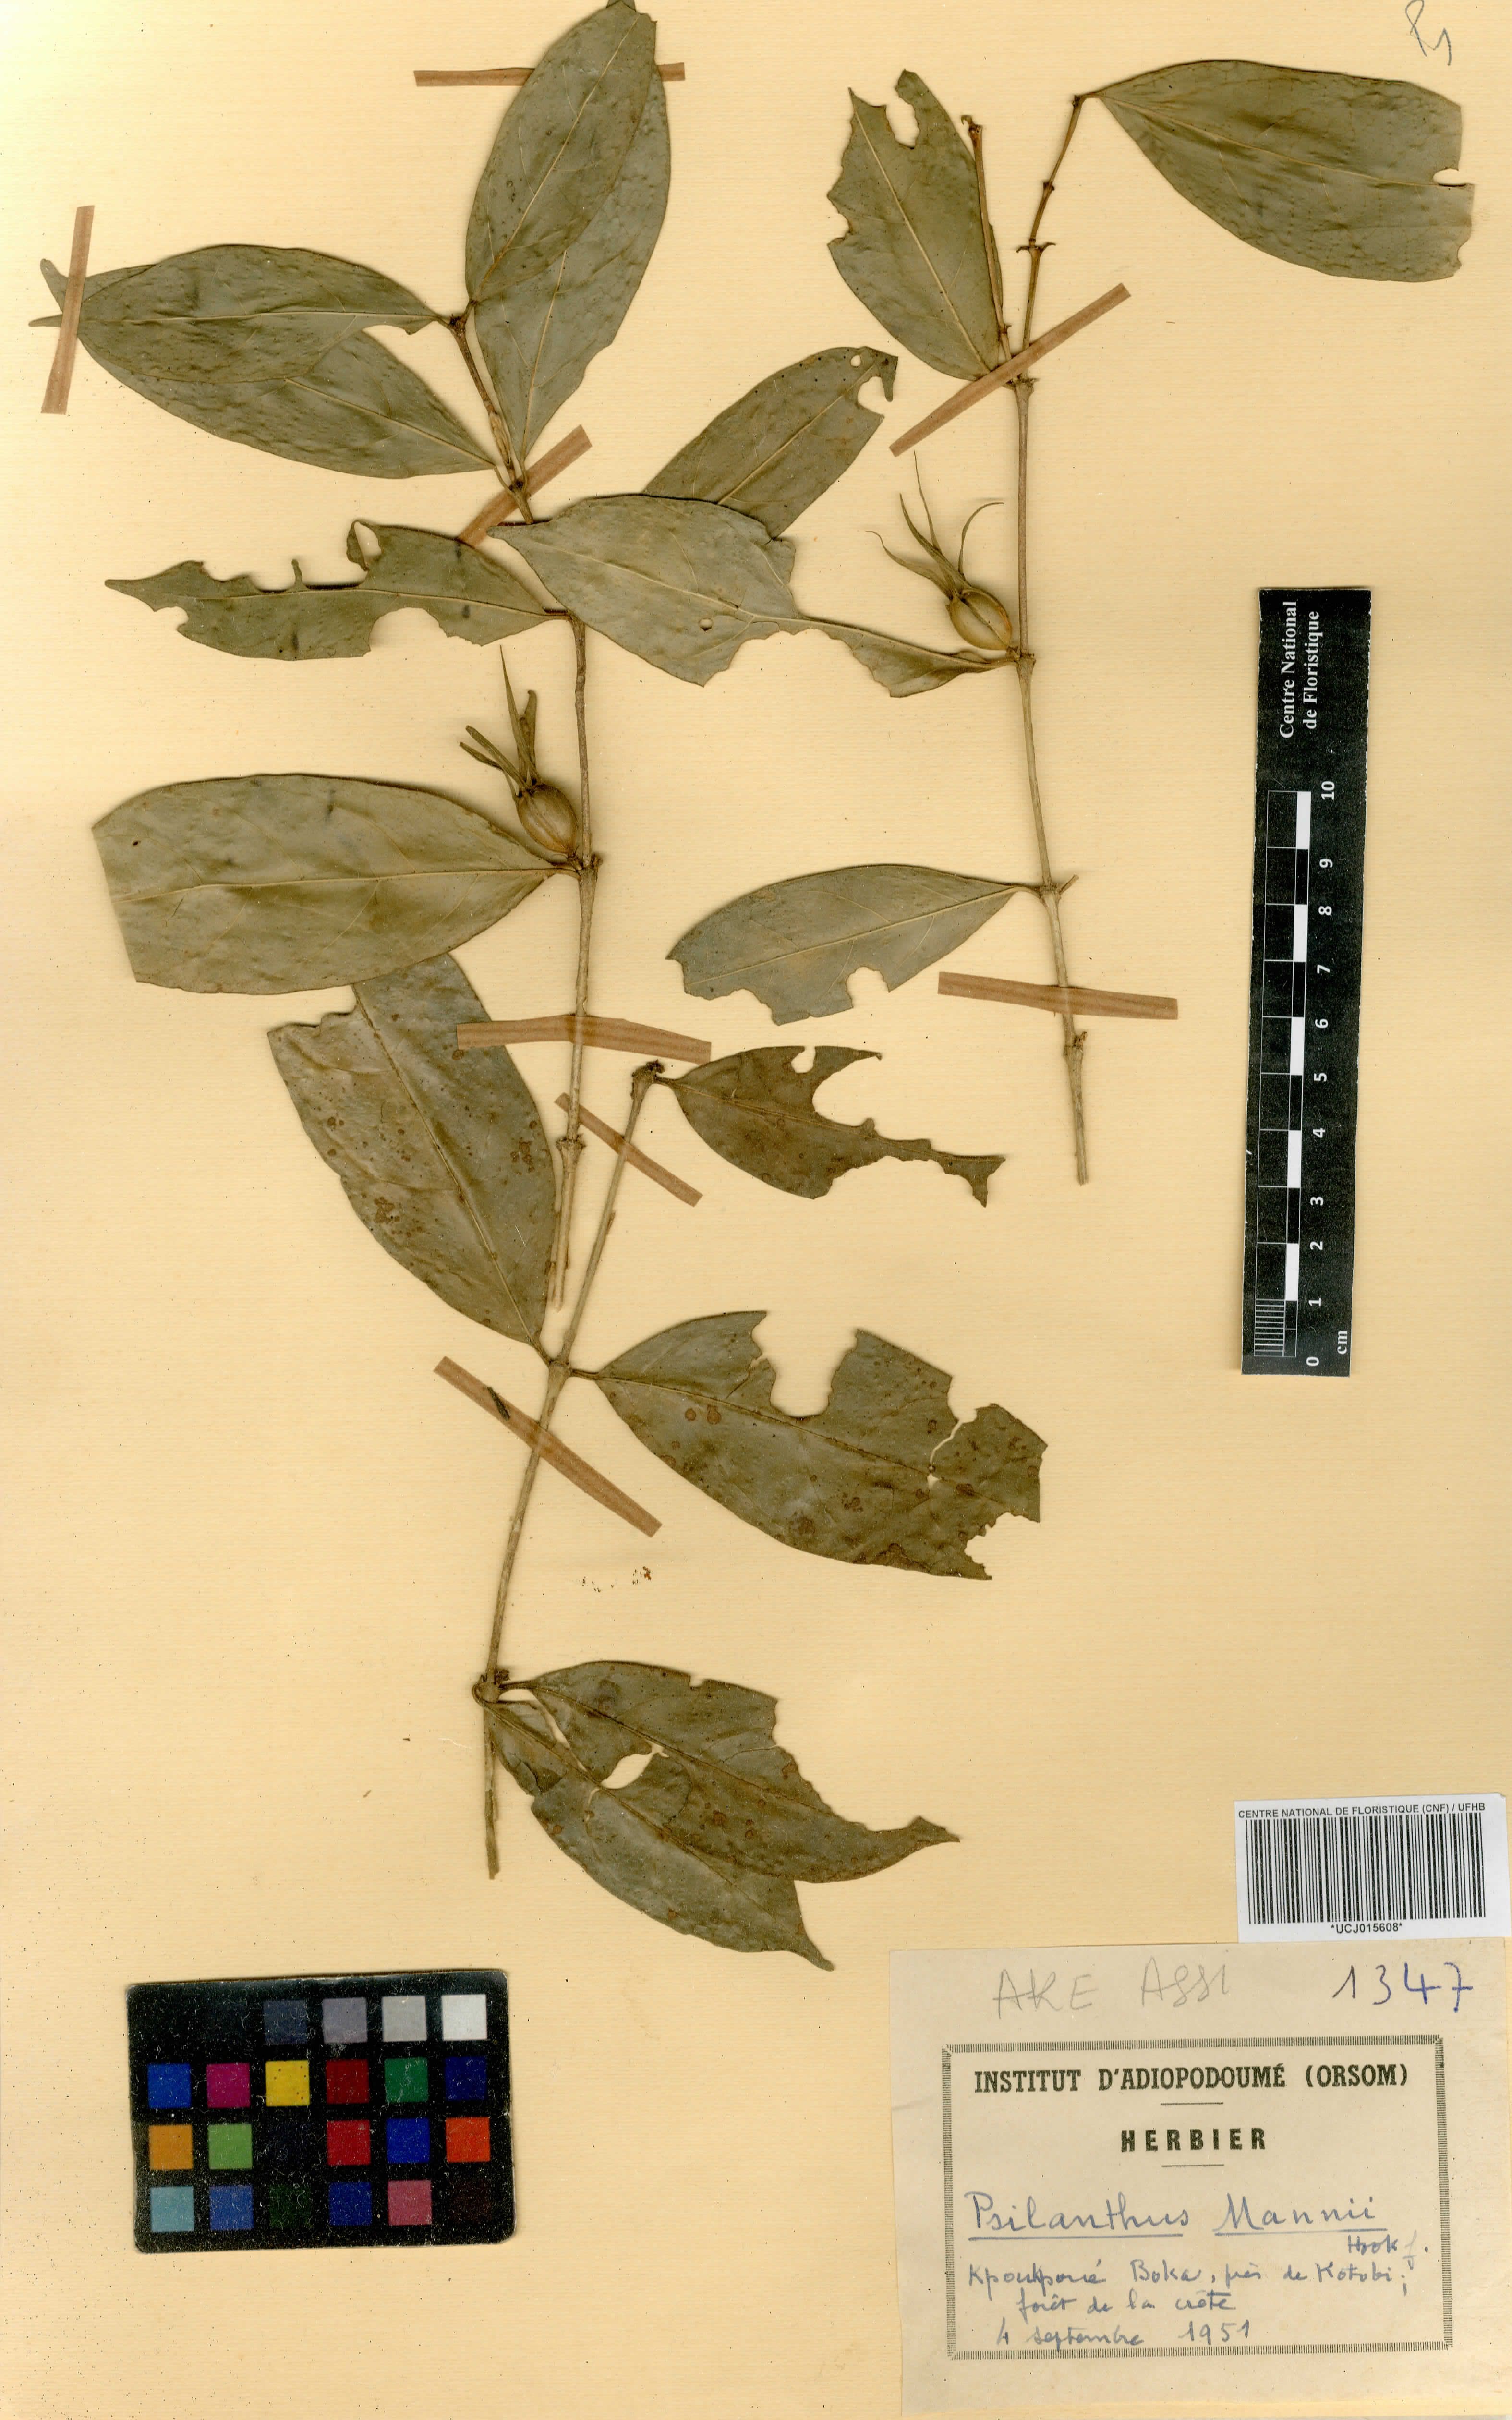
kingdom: Plantae
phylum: Tracheophyta
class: Magnoliopsida
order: Gentianales
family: Rubiaceae
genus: Coffea
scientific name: Coffea mannii
